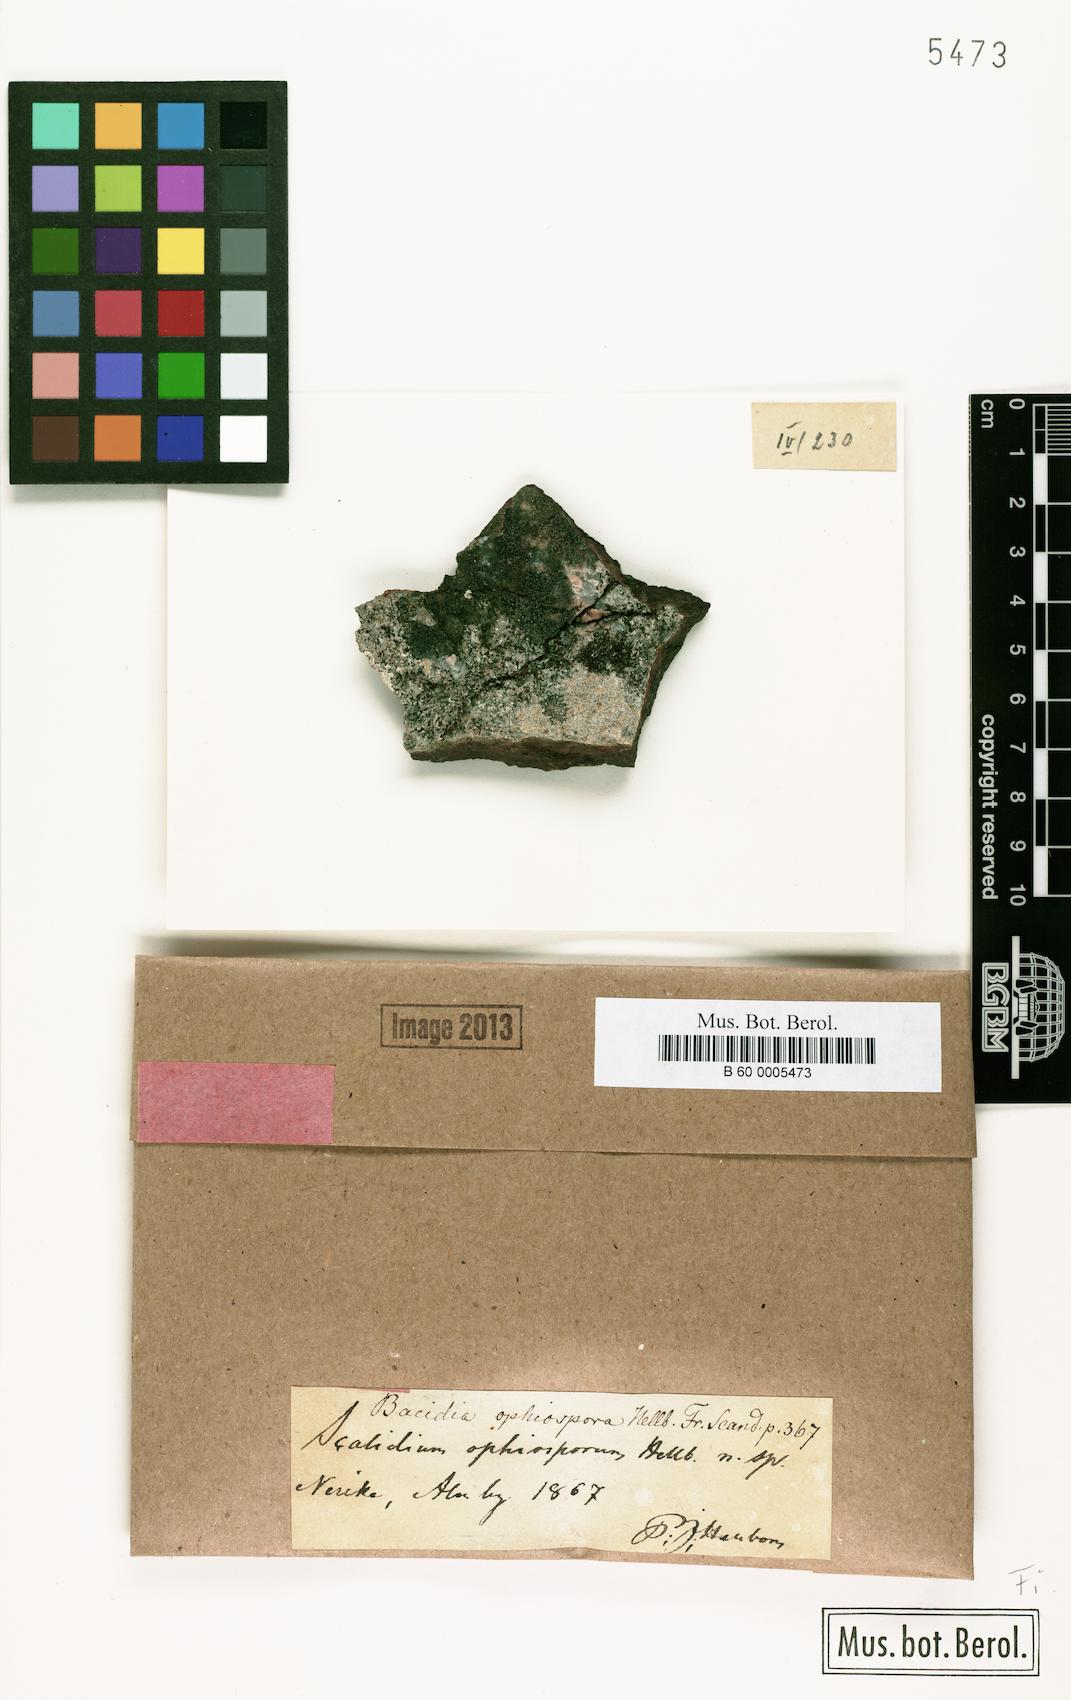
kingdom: Fungi
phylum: Ascomycota
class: Lecanoromycetes
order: Lecanorales
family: Scoliciosporaceae
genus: Scoliciosporum
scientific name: Scoliciosporum ophiosporum
